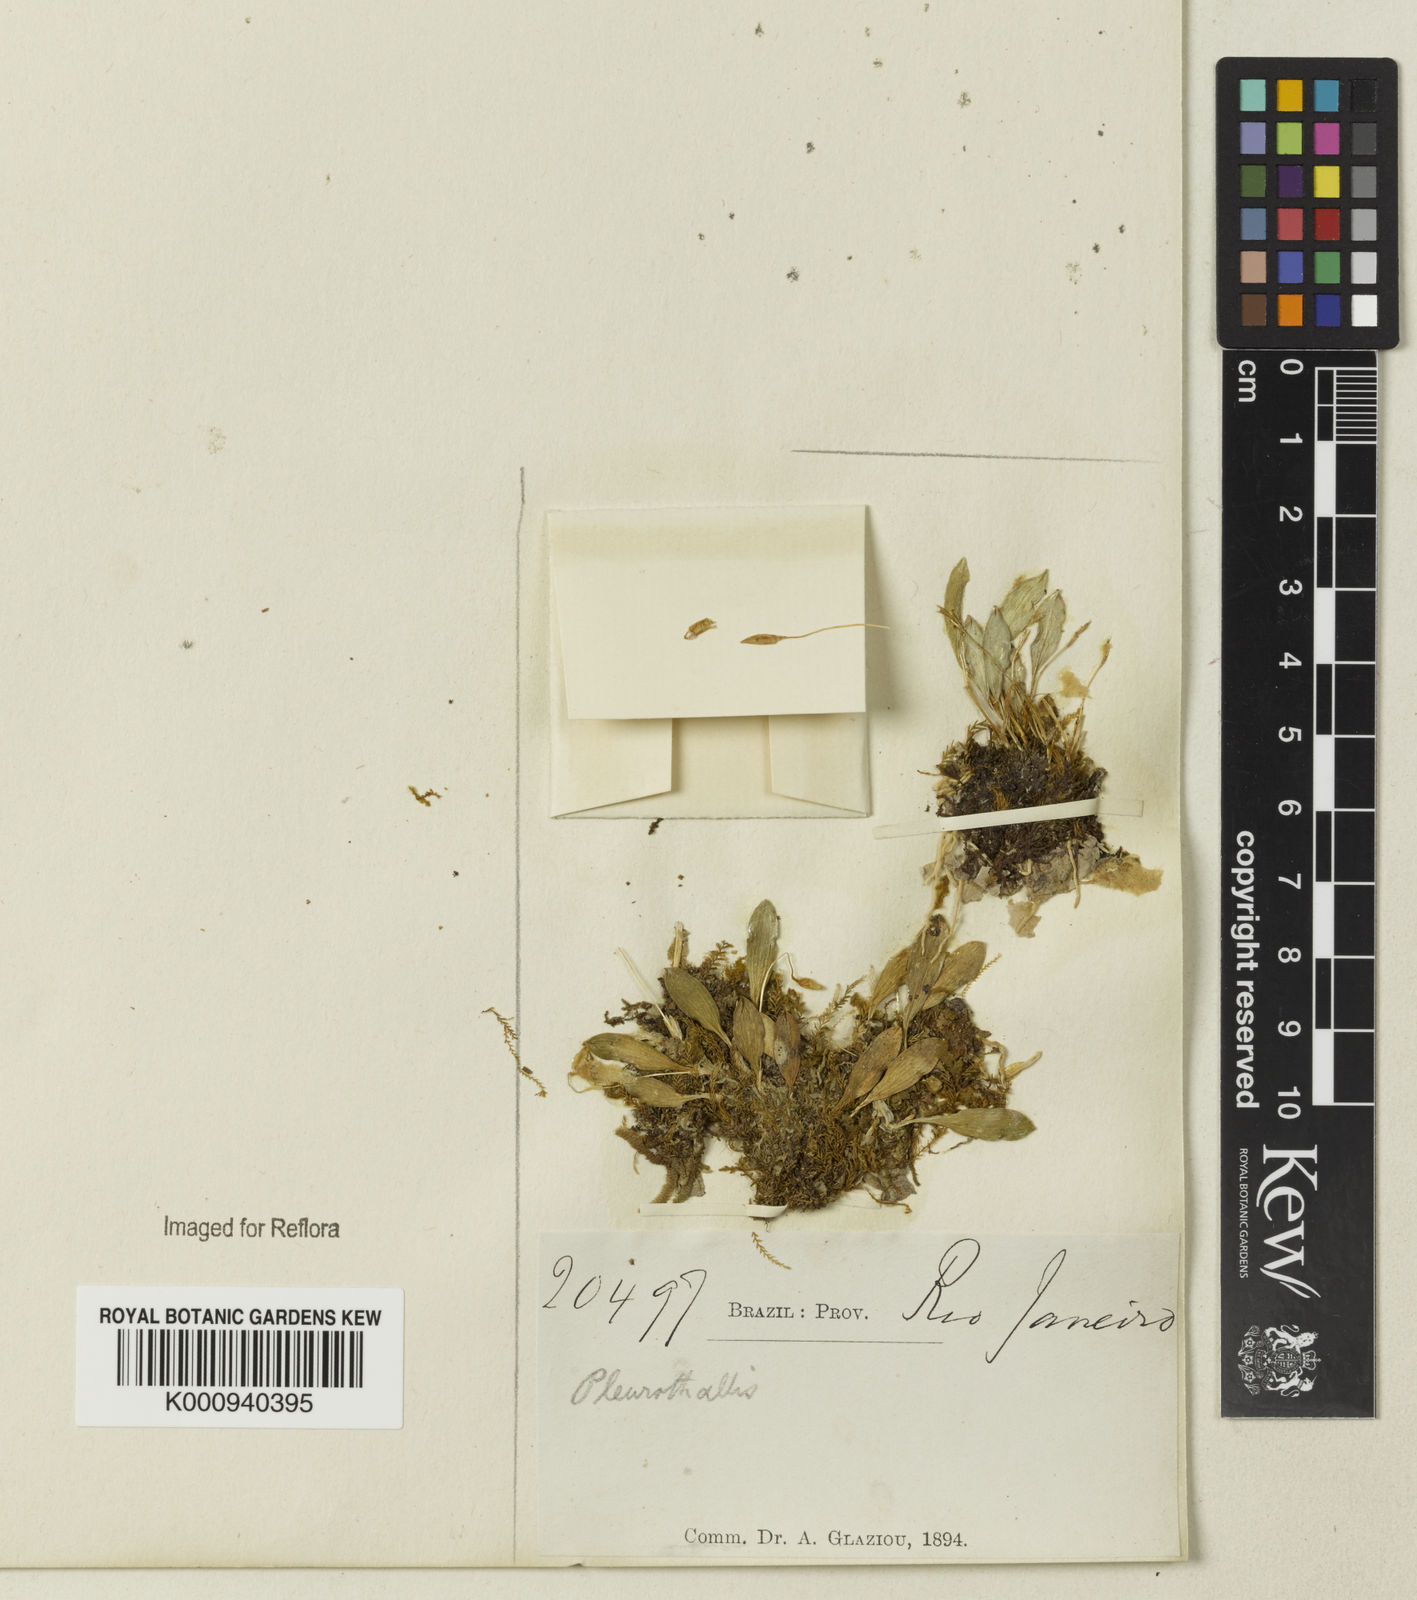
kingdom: Plantae
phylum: Tracheophyta
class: Liliopsida
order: Asparagales
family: Orchidaceae
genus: Pleurothallis
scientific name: Pleurothallis
